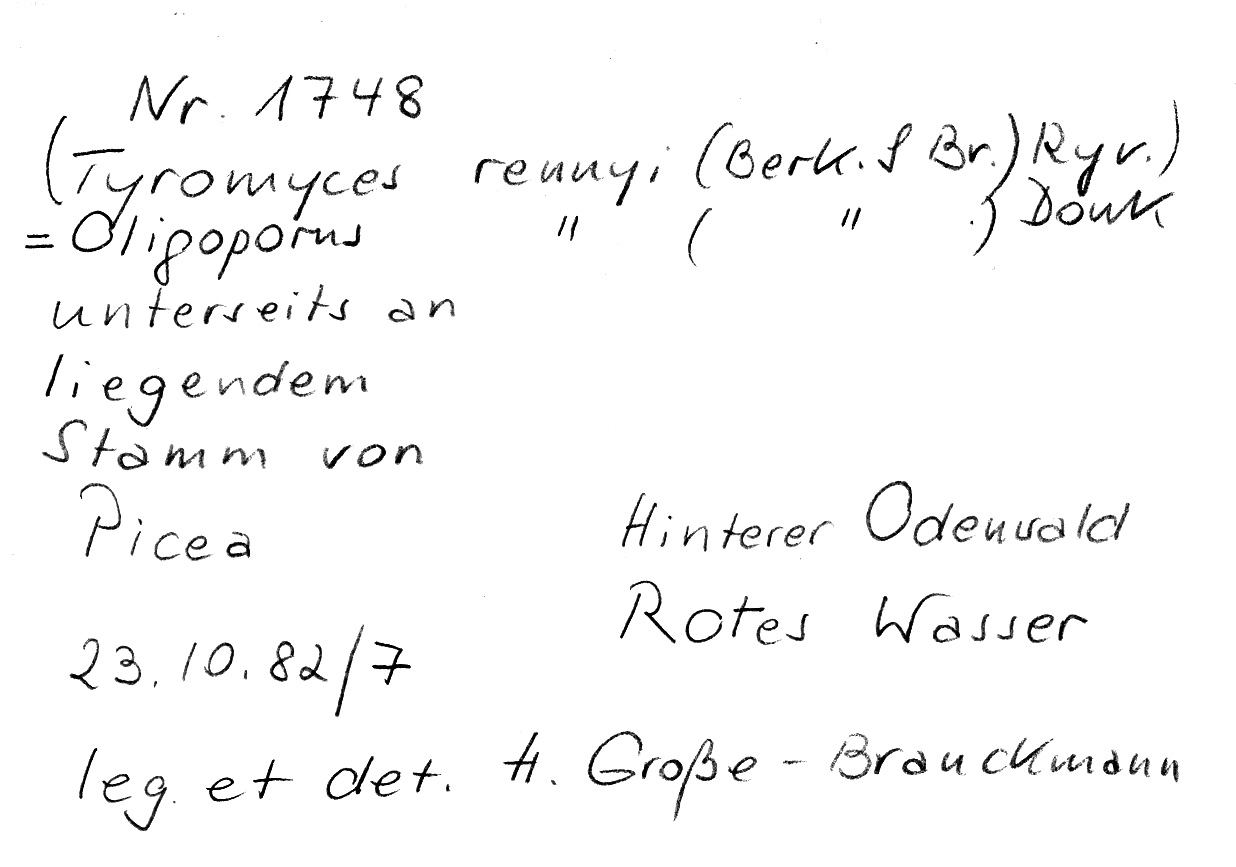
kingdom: Fungi
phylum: Basidiomycota
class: Agaricomycetes
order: Polyporales
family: Dacryobolaceae
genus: Oligoporus
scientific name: Oligoporus rennyi
